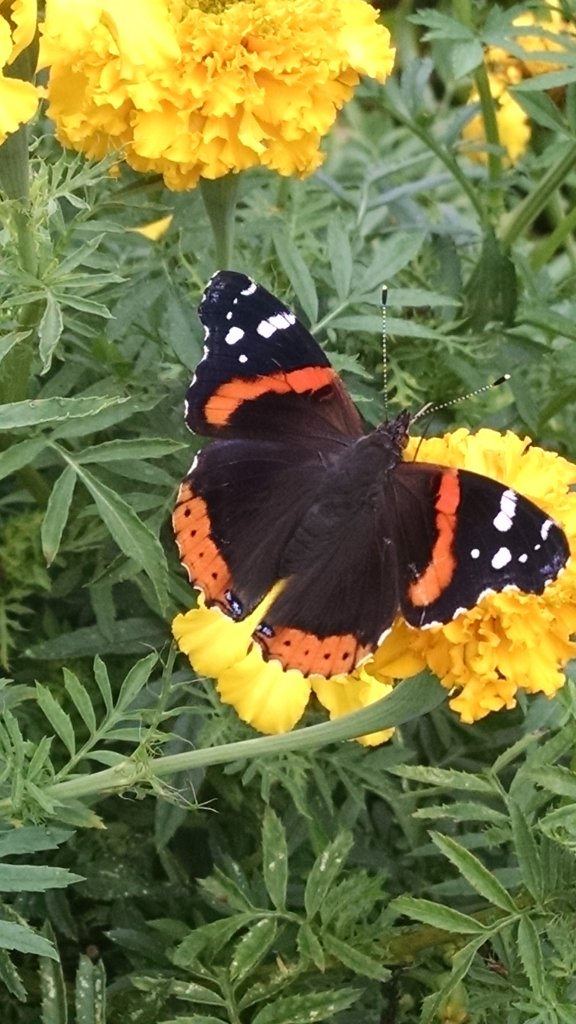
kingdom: Animalia
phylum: Arthropoda
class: Insecta
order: Lepidoptera
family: Nymphalidae
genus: Vanessa
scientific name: Vanessa atalanta
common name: Red Admiral
